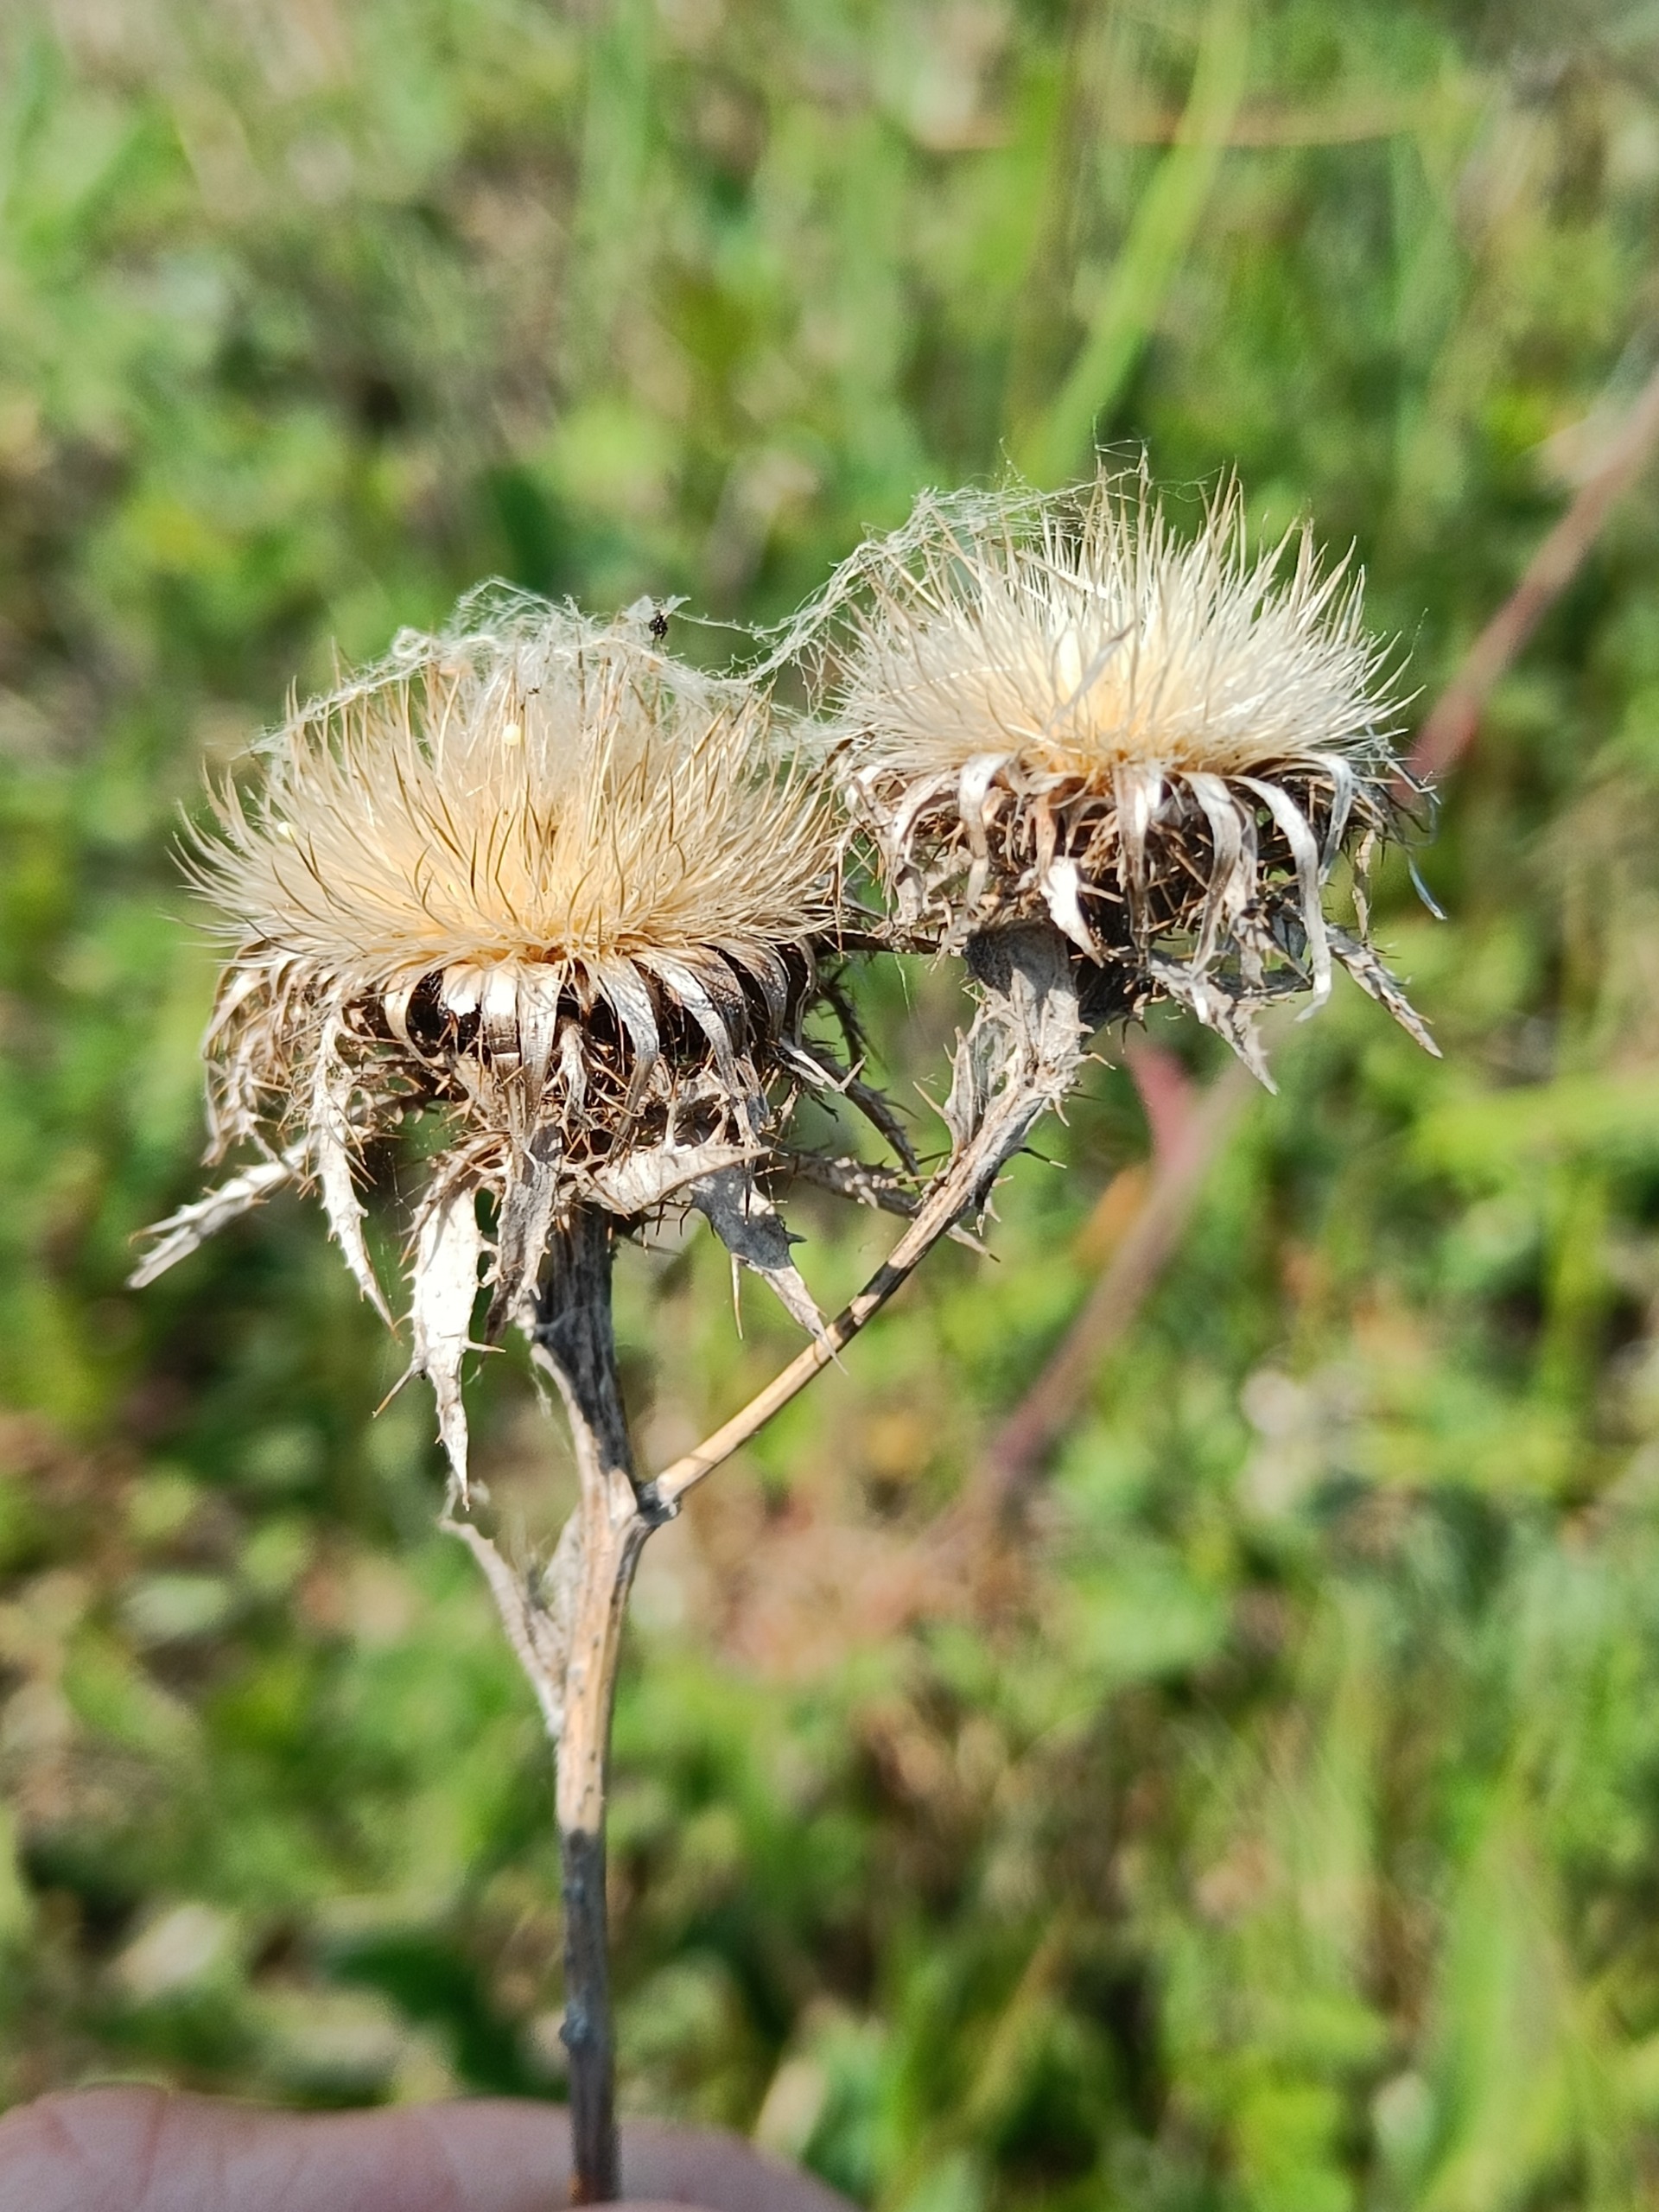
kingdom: Plantae
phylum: Tracheophyta
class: Magnoliopsida
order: Asterales
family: Asteraceae
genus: Carlina
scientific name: Carlina vulgaris
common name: Bakketidsel
